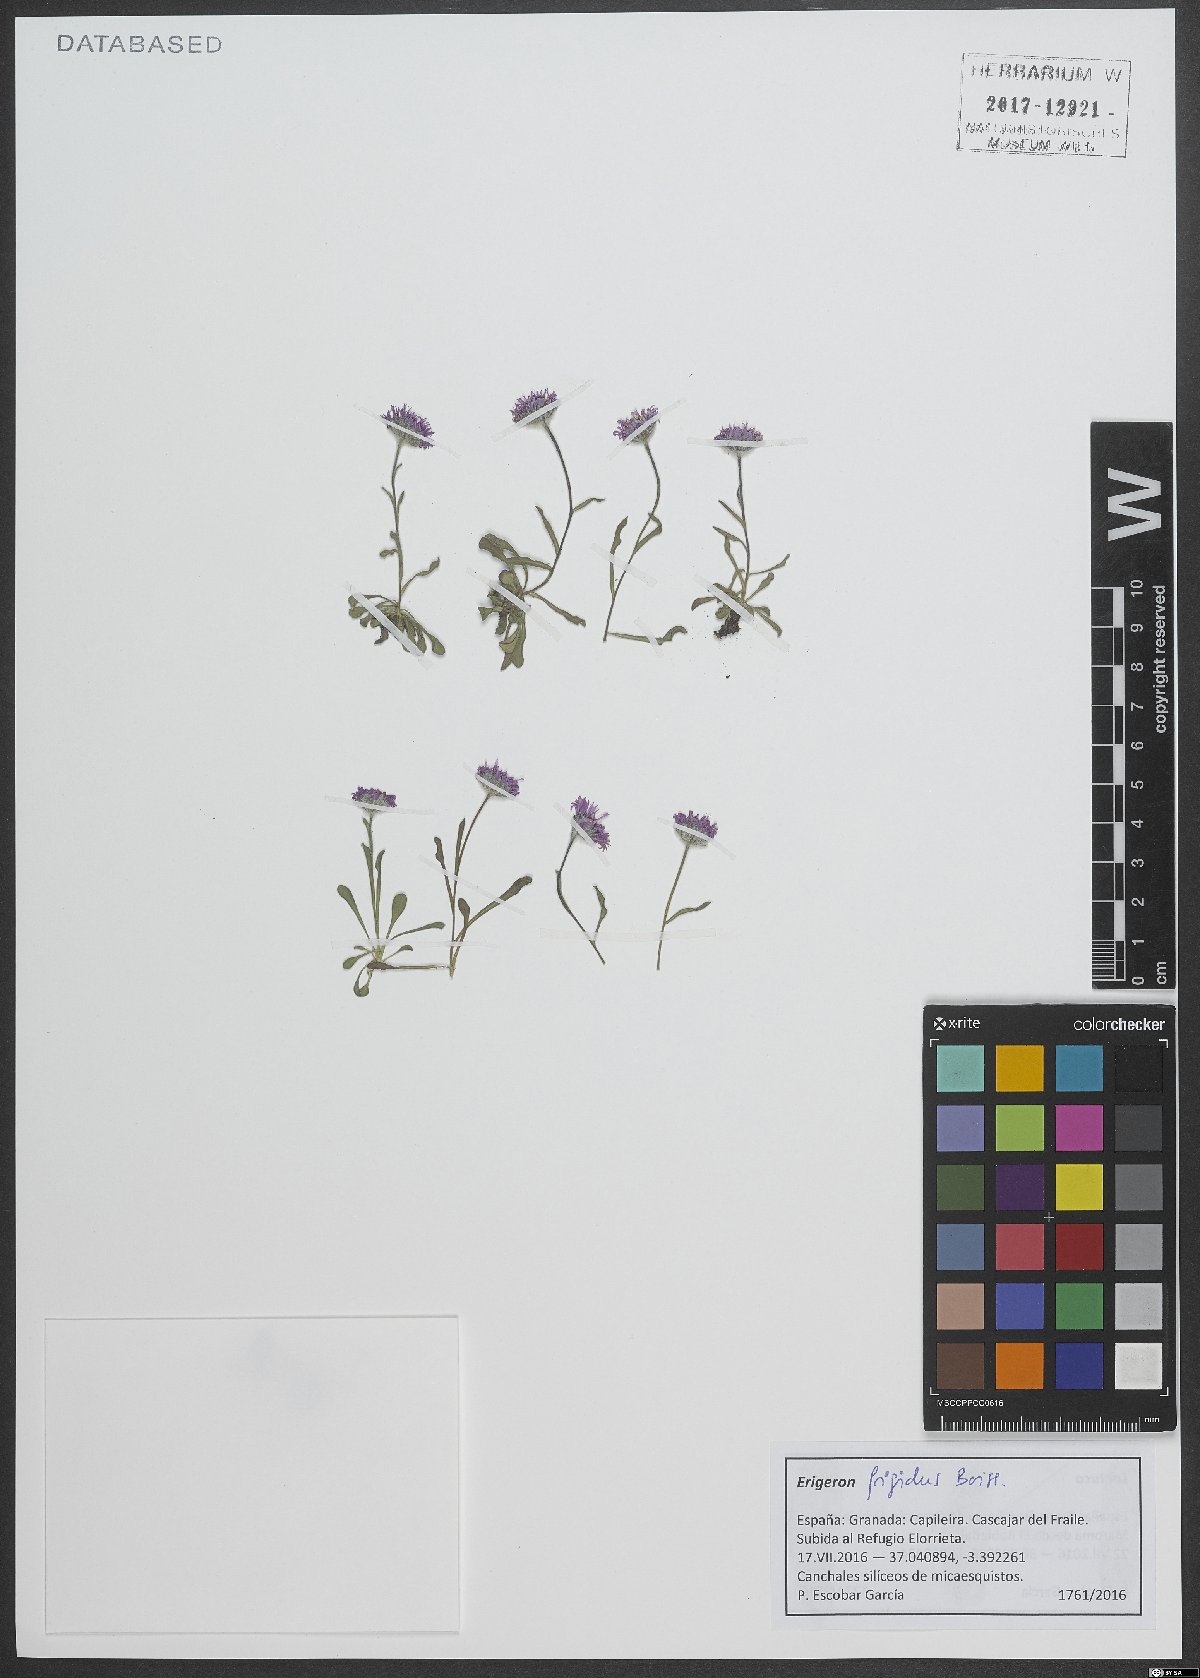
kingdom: Plantae
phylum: Tracheophyta
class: Magnoliopsida
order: Asterales
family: Asteraceae
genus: Erigeron
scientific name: Erigeron frigidus
